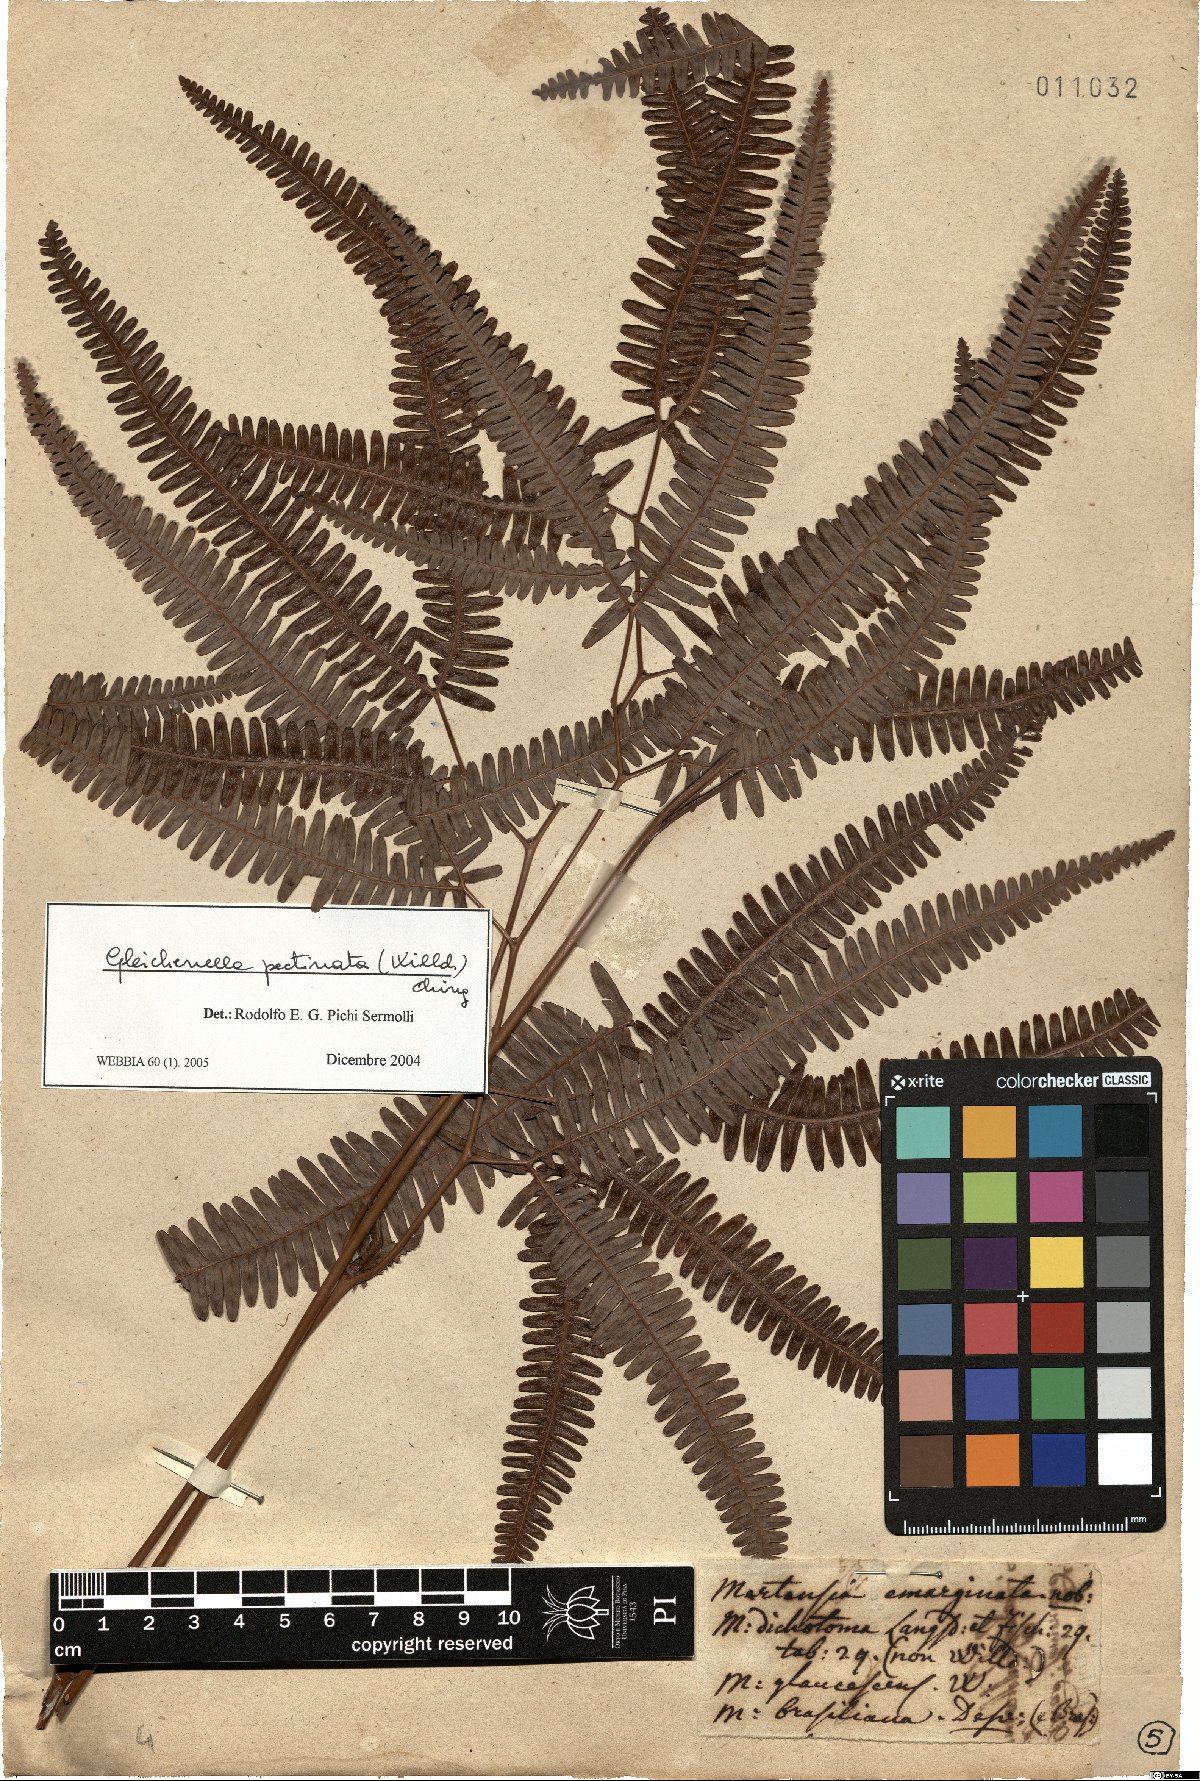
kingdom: Plantae
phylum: Tracheophyta
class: Polypodiopsida
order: Gleicheniales
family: Gleicheniaceae
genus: Gleichenella
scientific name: Gleichenella pectinata
